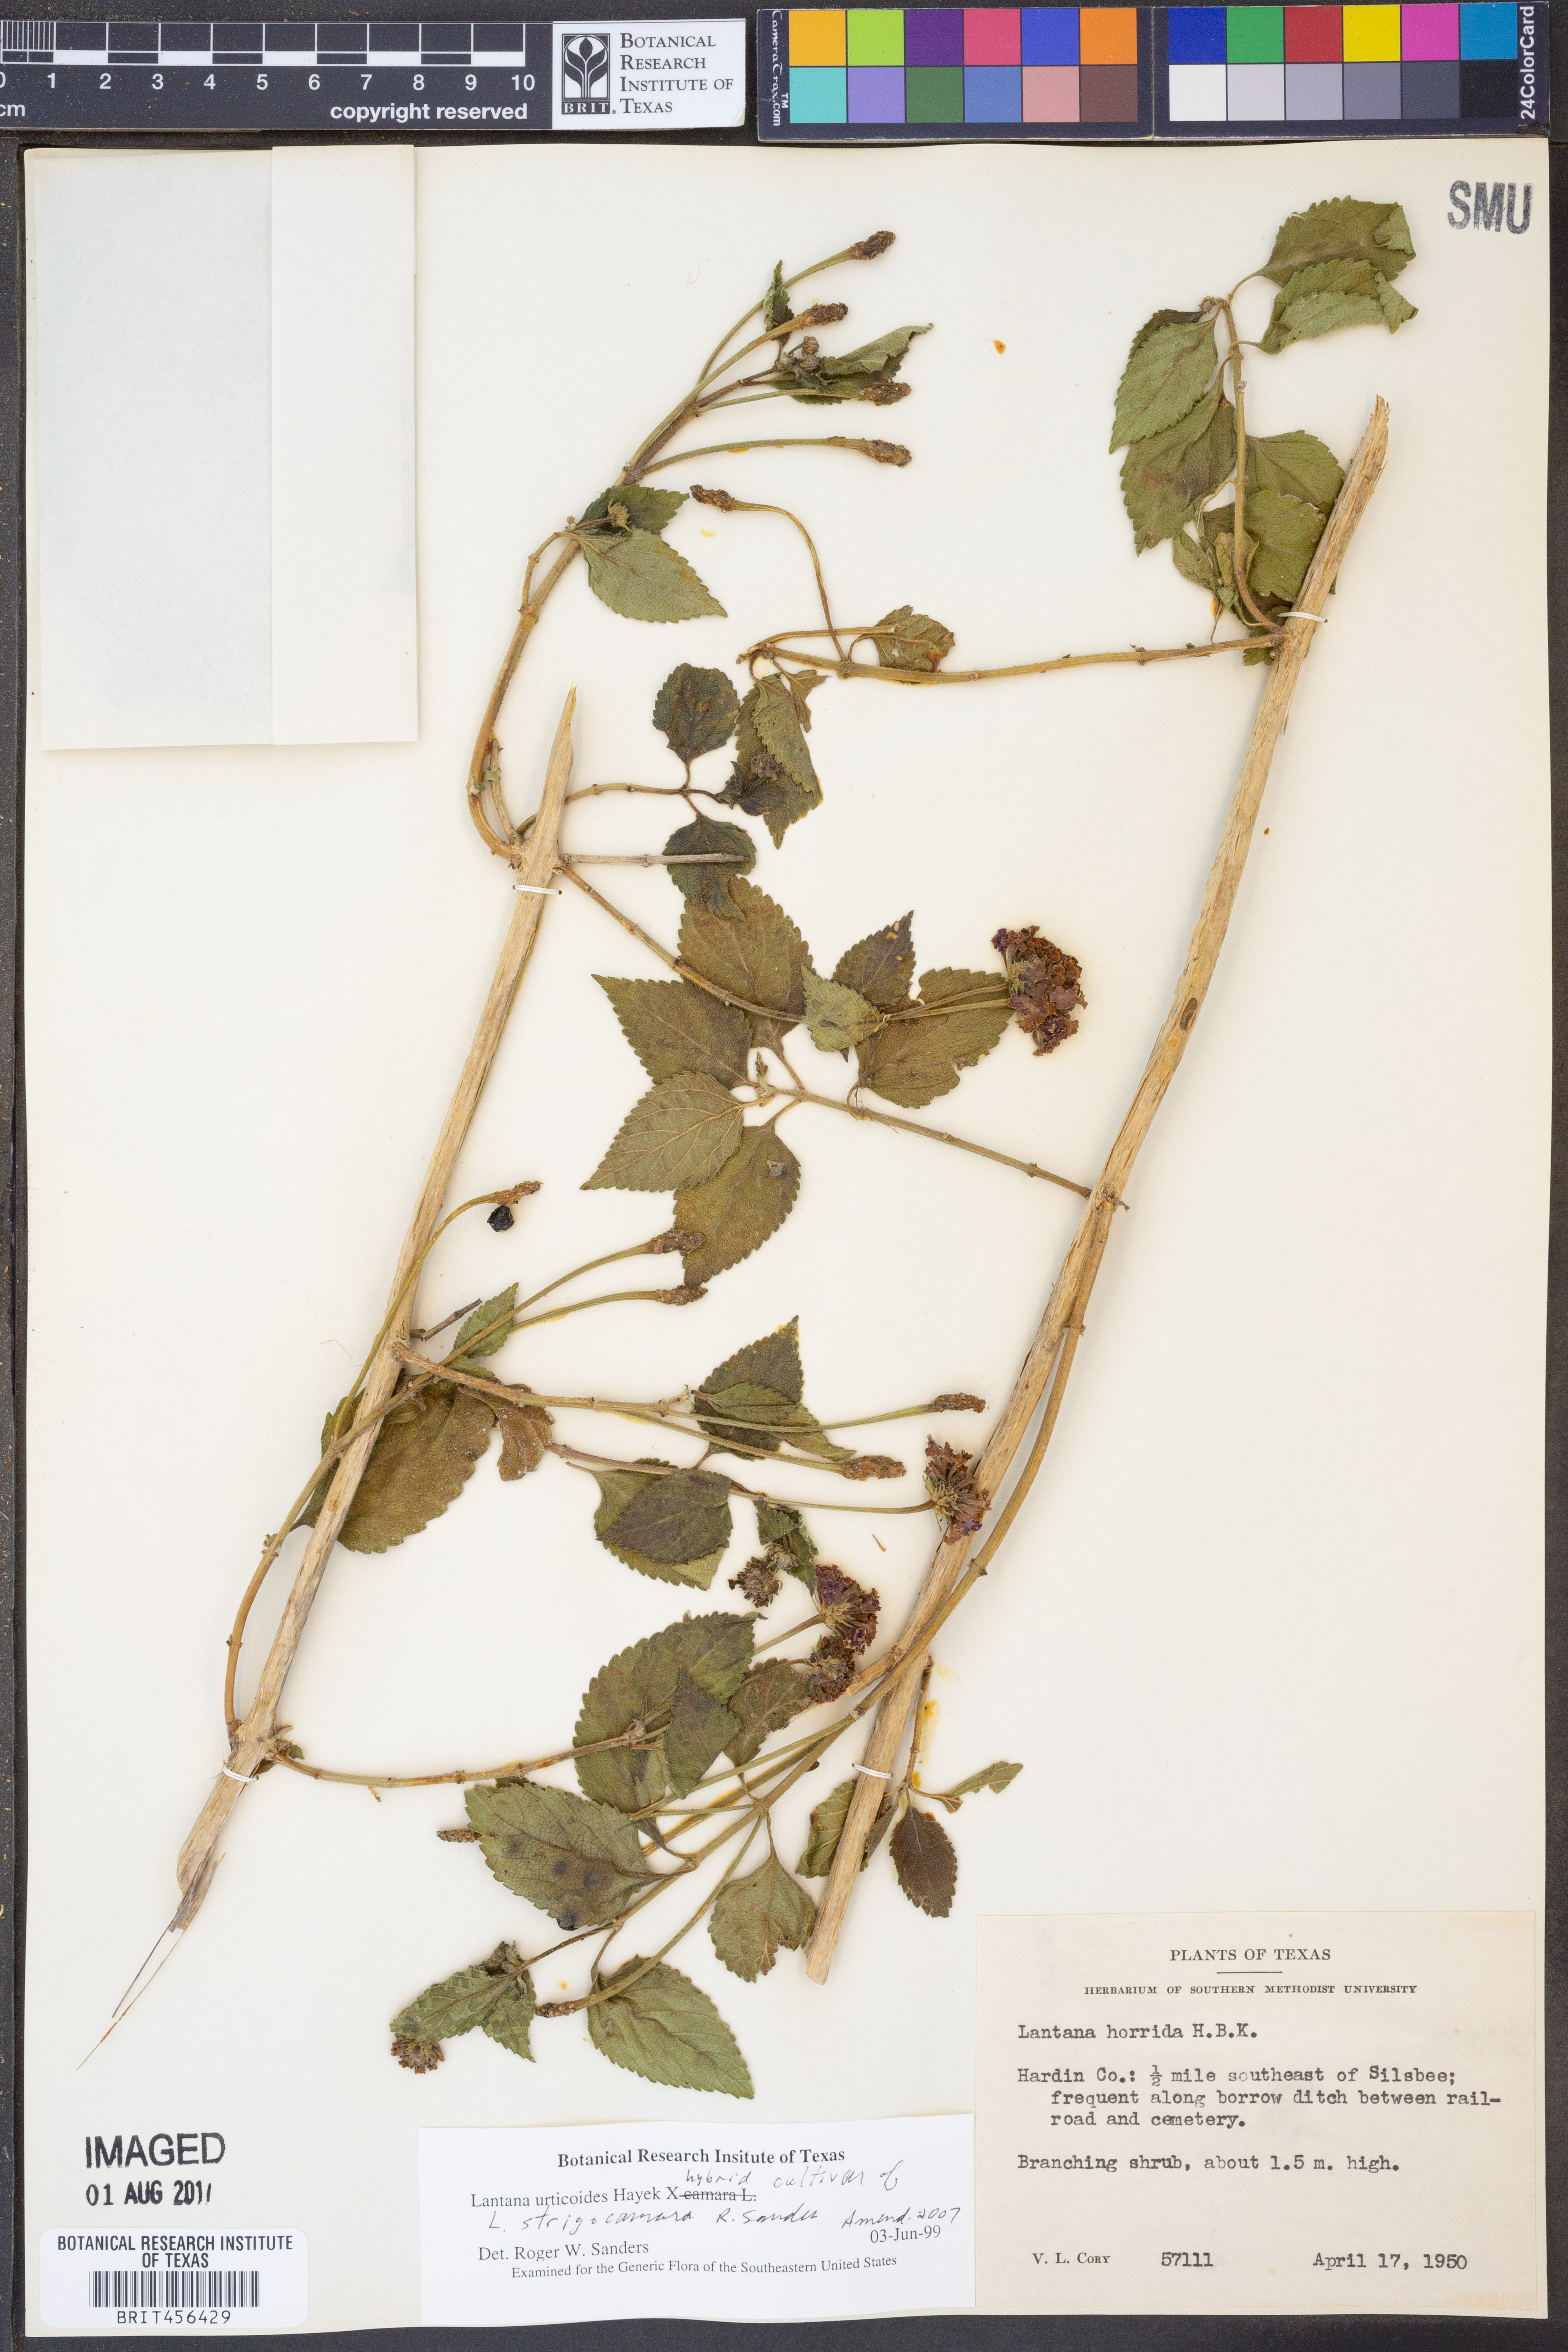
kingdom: Plantae
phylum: Tracheophyta
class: Magnoliopsida
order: Lamiales
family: Verbenaceae
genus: Lantana
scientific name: Lantana urticoides
